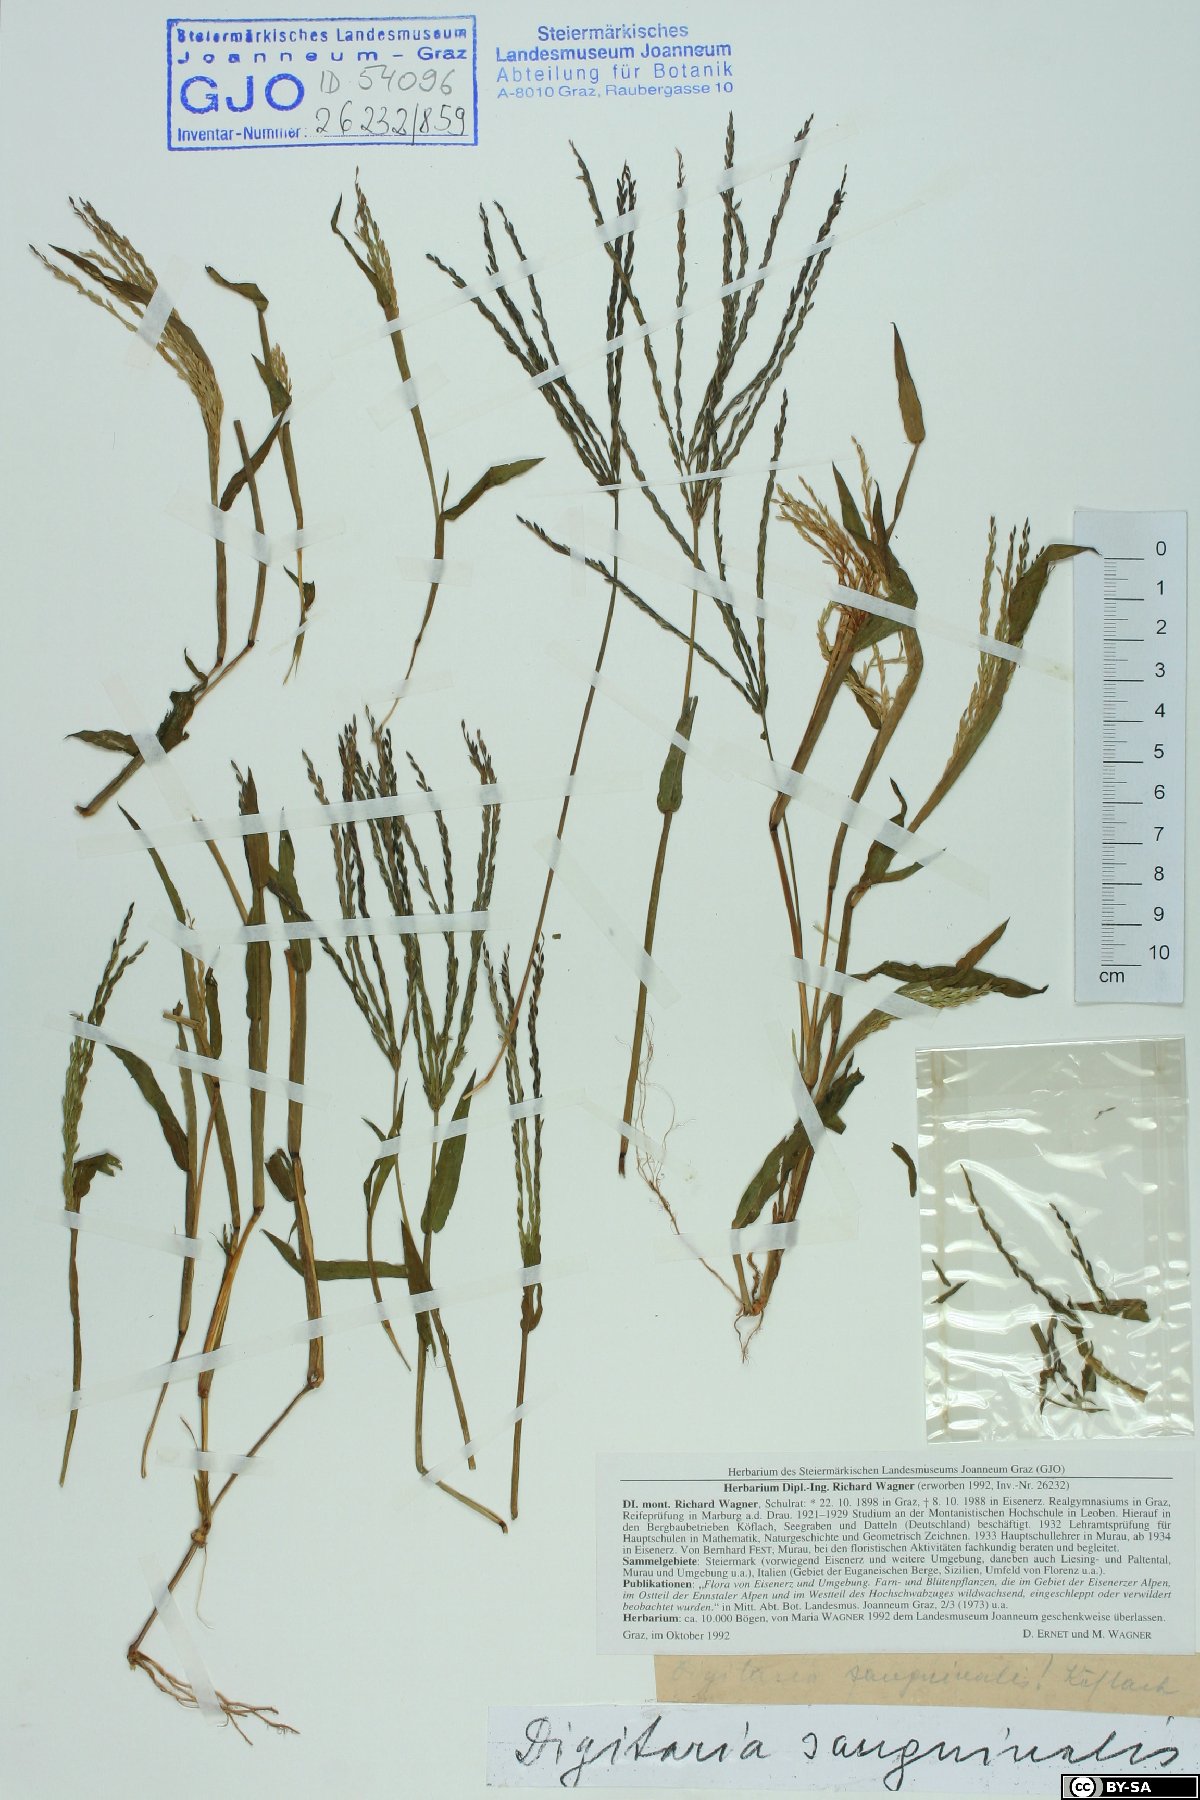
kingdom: Plantae
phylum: Tracheophyta
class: Liliopsida
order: Poales
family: Poaceae
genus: Digitaria
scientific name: Digitaria sanguinalis
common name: Hairy crabgrass
